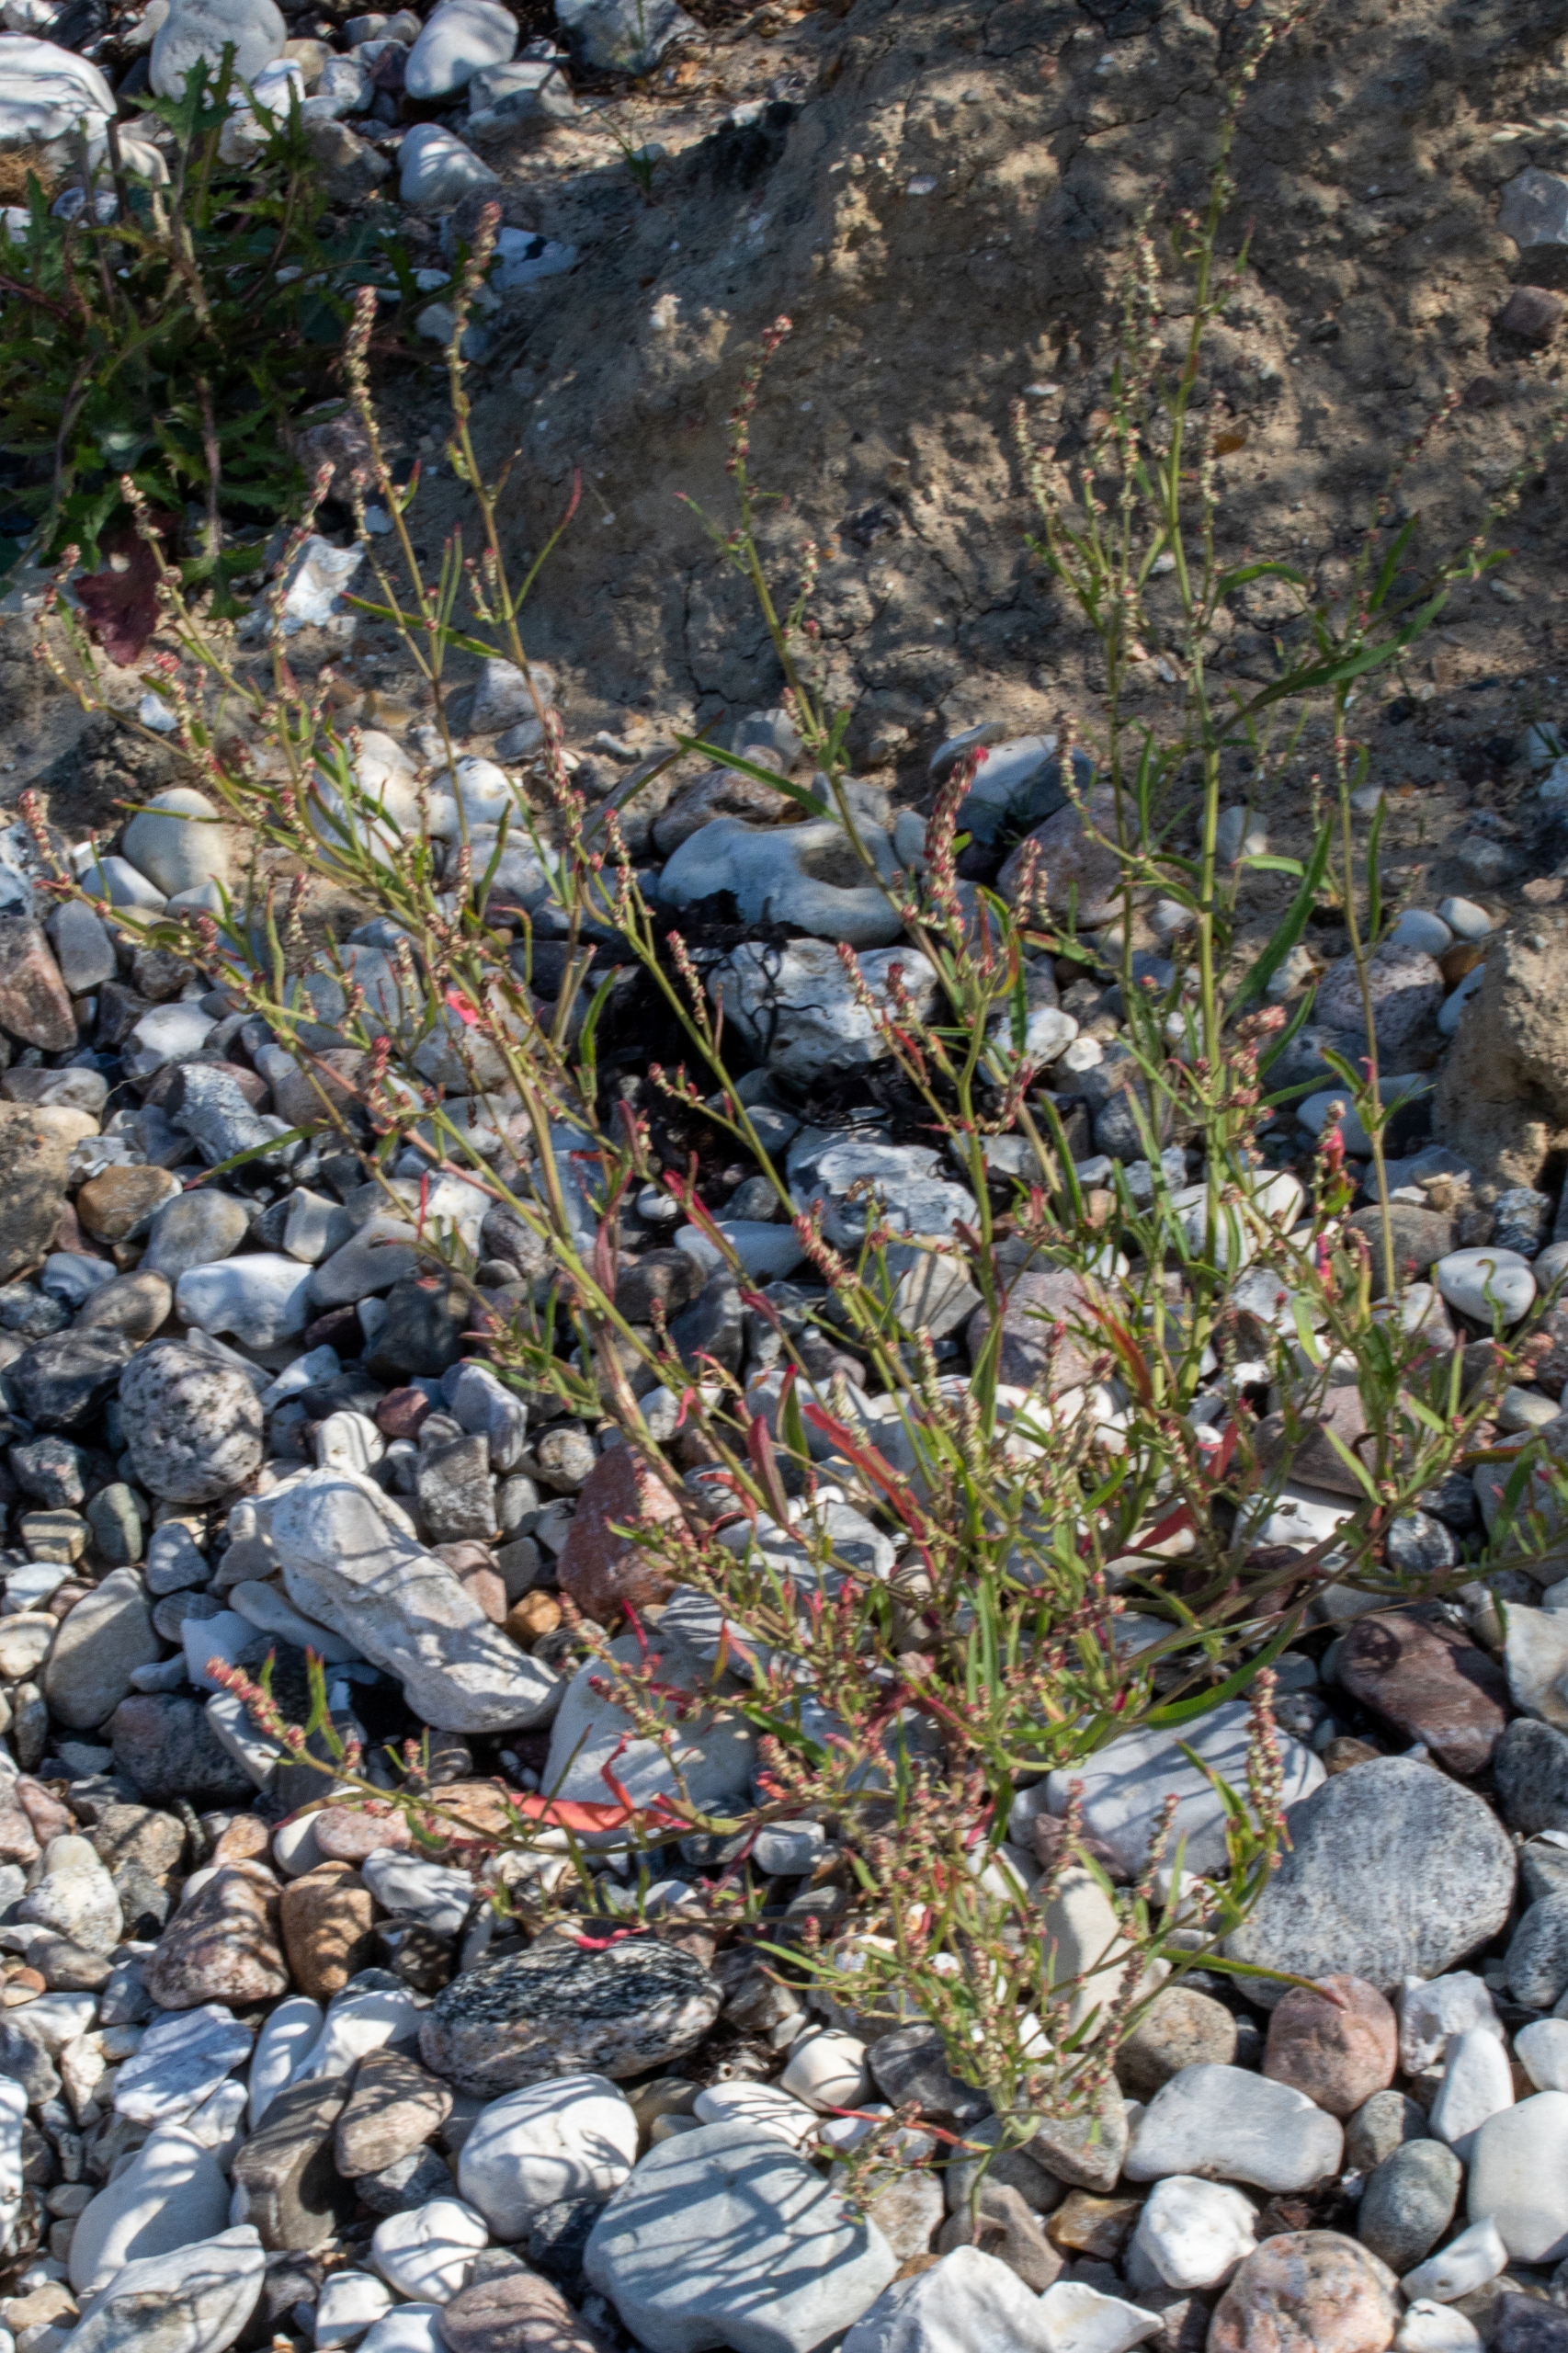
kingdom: Plantae
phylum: Tracheophyta
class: Magnoliopsida
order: Caryophyllales
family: Amaranthaceae
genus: Atriplex
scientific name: Atriplex littoralis
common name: Strand-mælde
